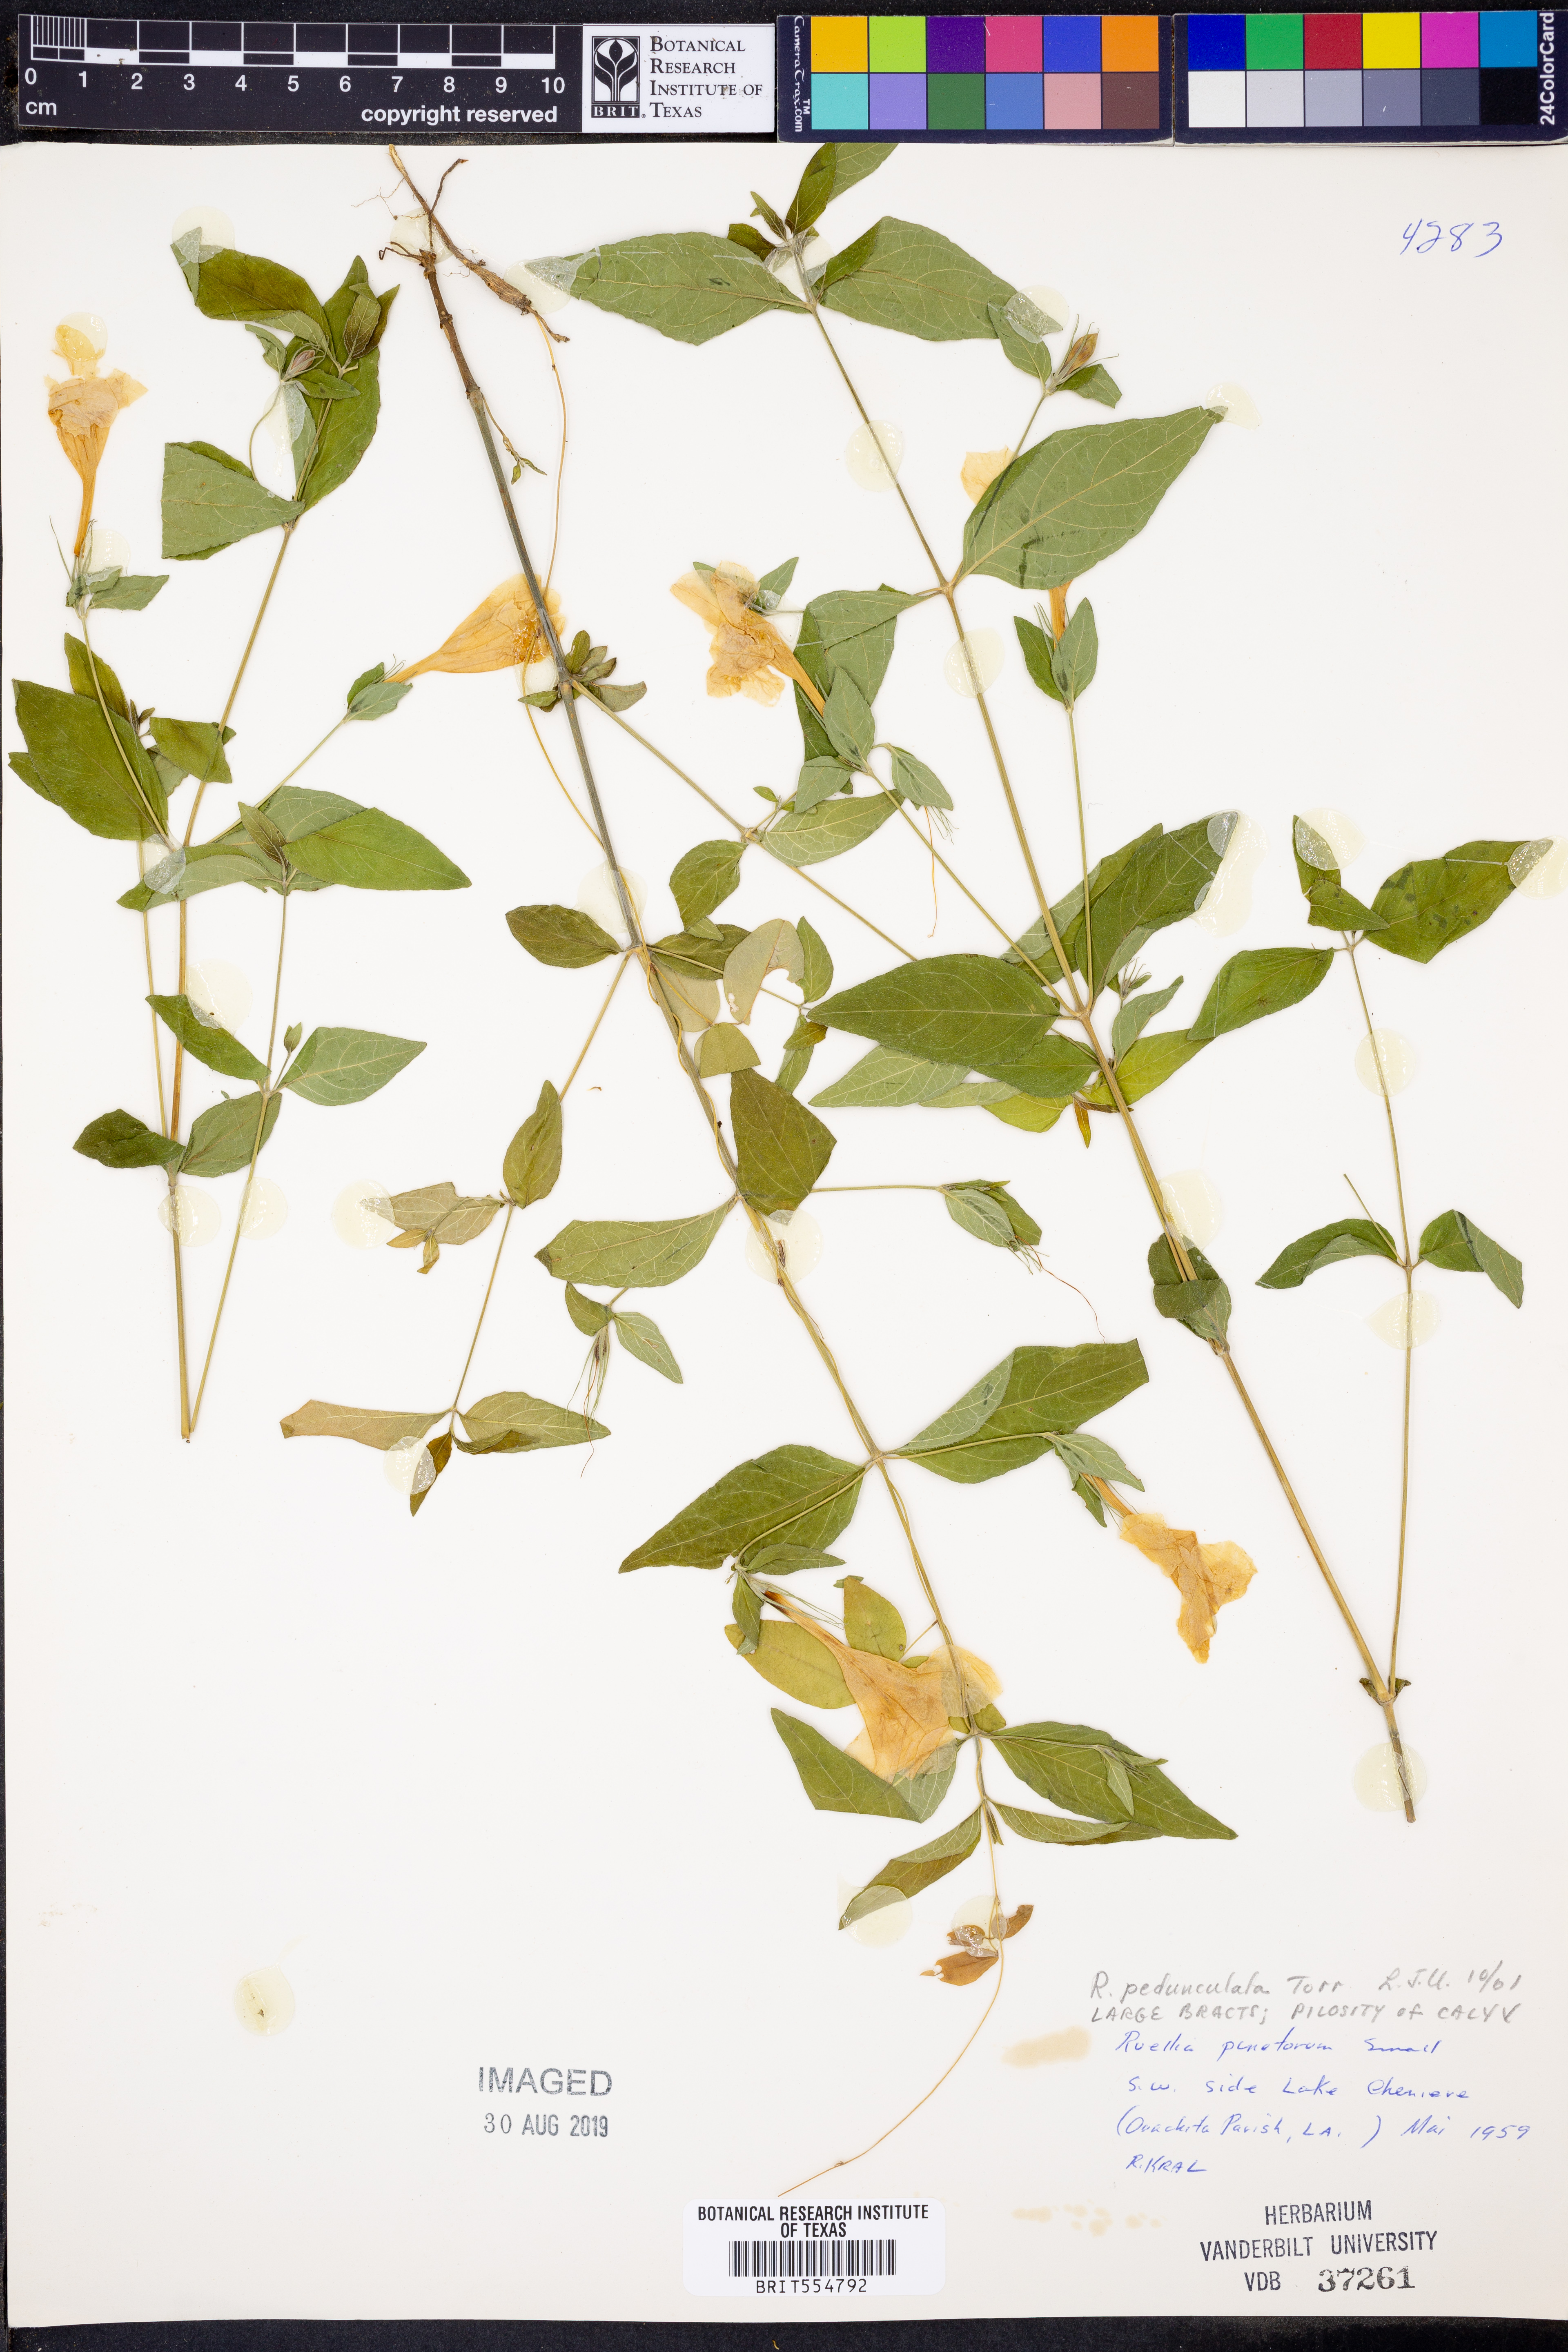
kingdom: Plantae
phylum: Tracheophyta
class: Magnoliopsida
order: Lamiales
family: Acanthaceae
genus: Ruellia
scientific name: Ruellia pedunculata
